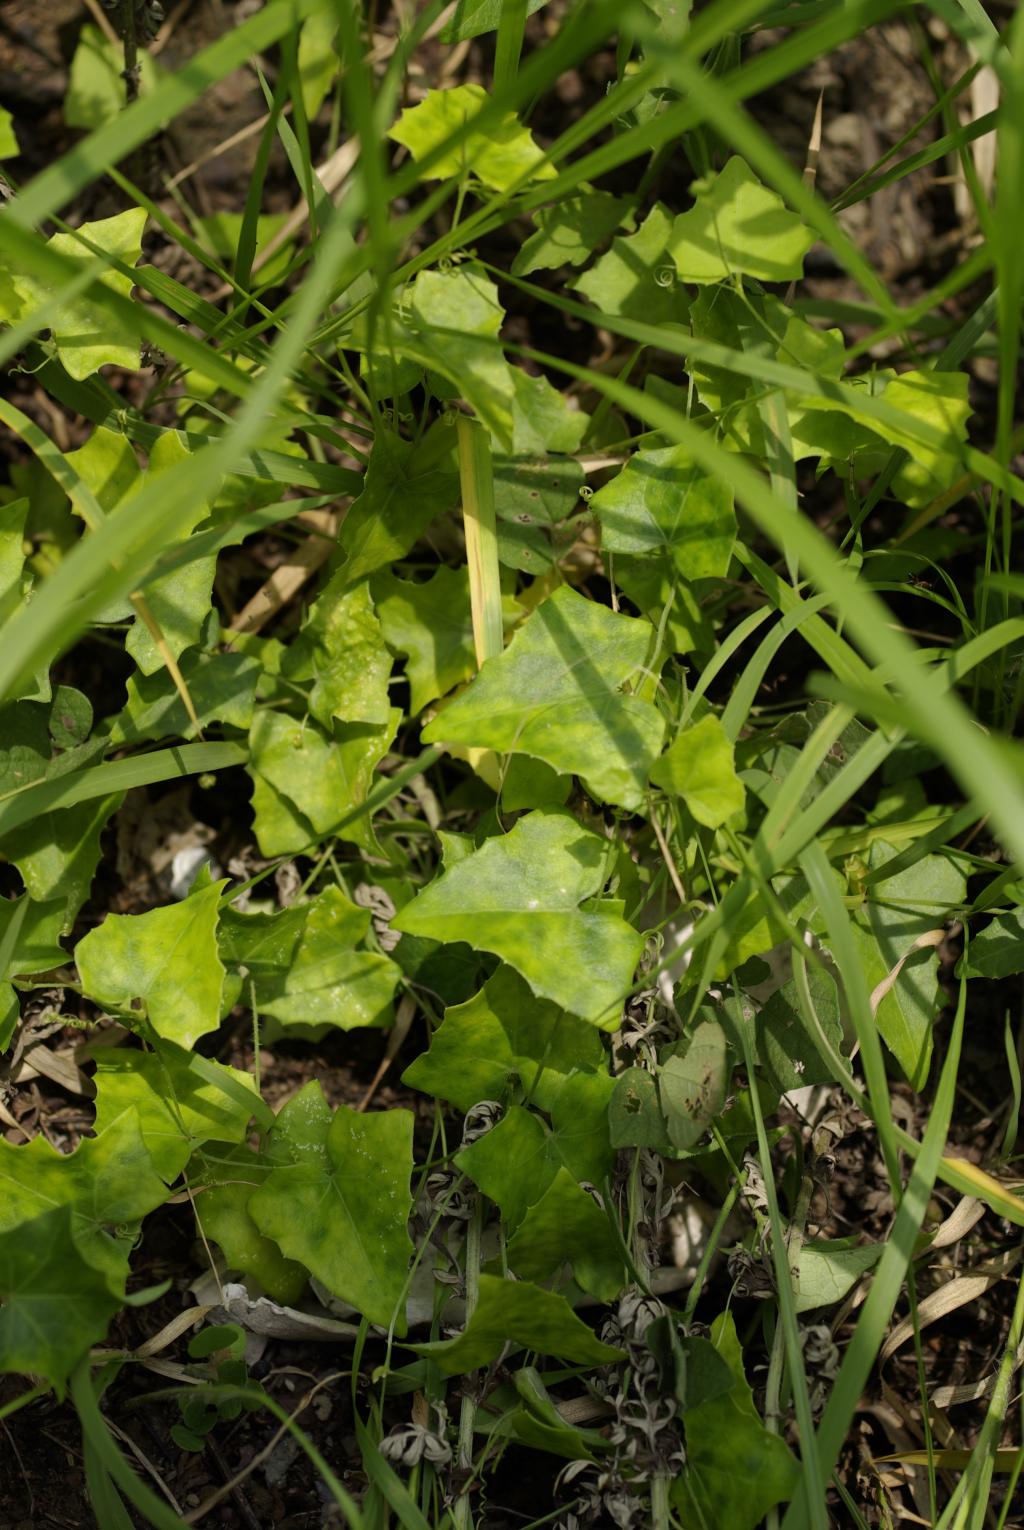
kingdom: Plantae
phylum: Tracheophyta
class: Magnoliopsida
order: Cucurbitales
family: Cucurbitaceae
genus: Melothria
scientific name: Melothria pendula
